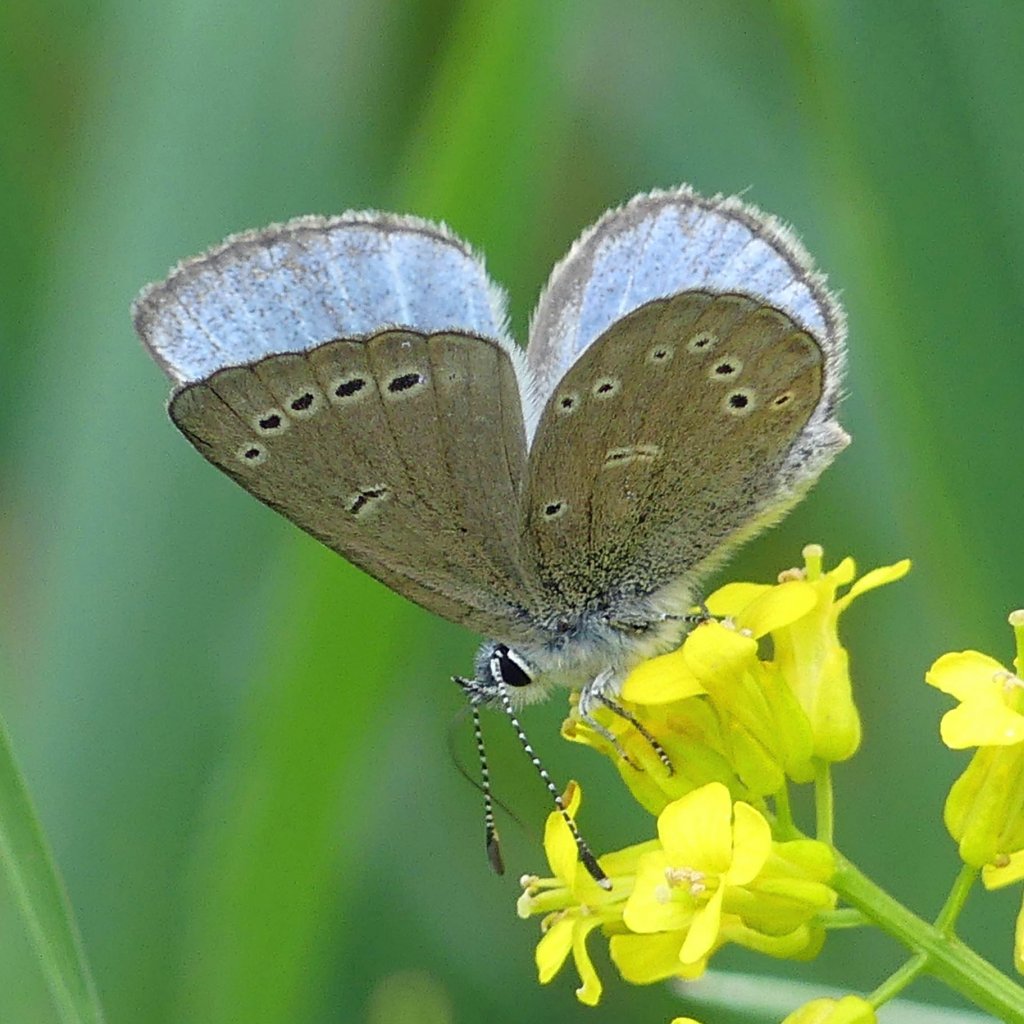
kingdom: Animalia
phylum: Arthropoda
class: Insecta
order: Lepidoptera
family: Lycaenidae
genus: Glaucopsyche
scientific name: Glaucopsyche lygdamus
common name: Silvery Blue
